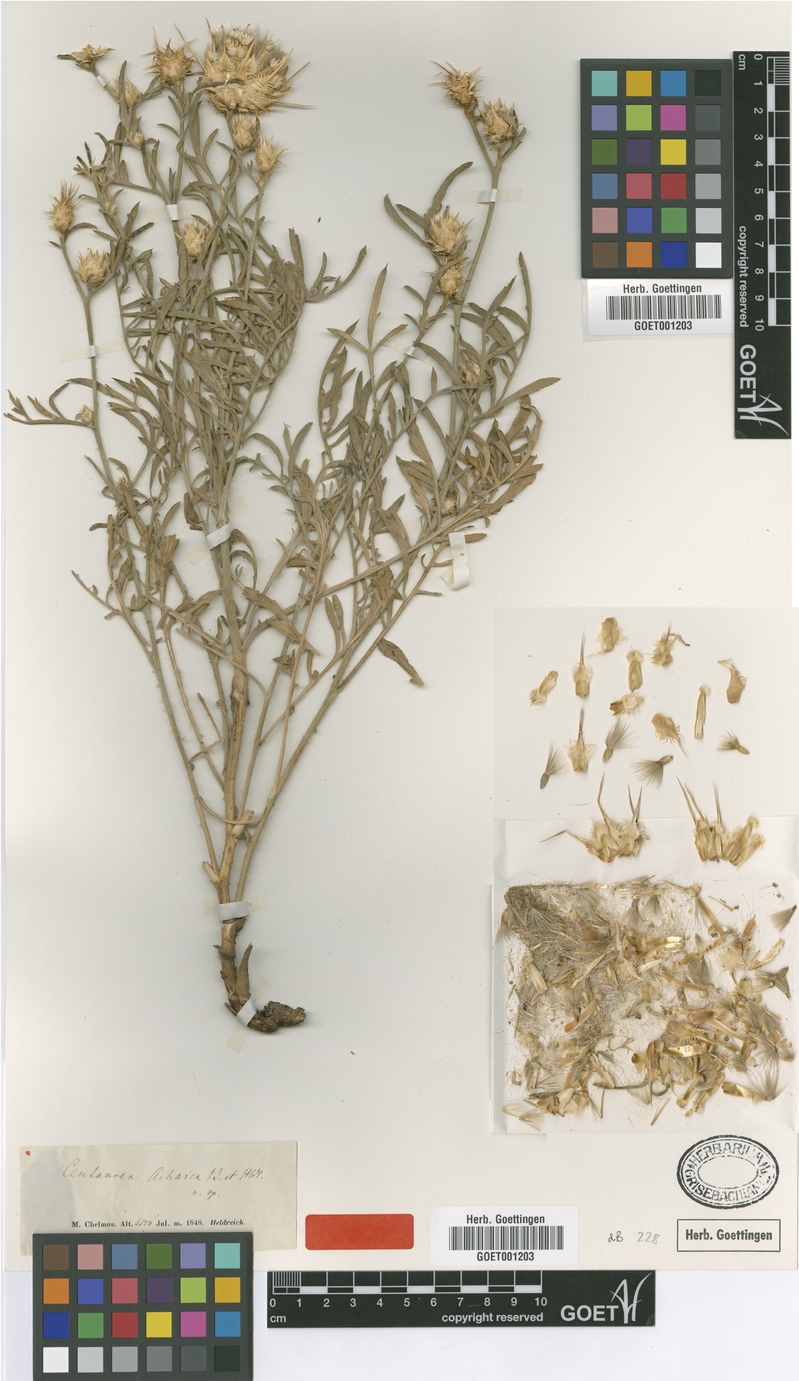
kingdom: Plantae
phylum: Tracheophyta
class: Magnoliopsida
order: Asterales
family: Asteraceae
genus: Centaurea
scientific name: Centaurea achaia
